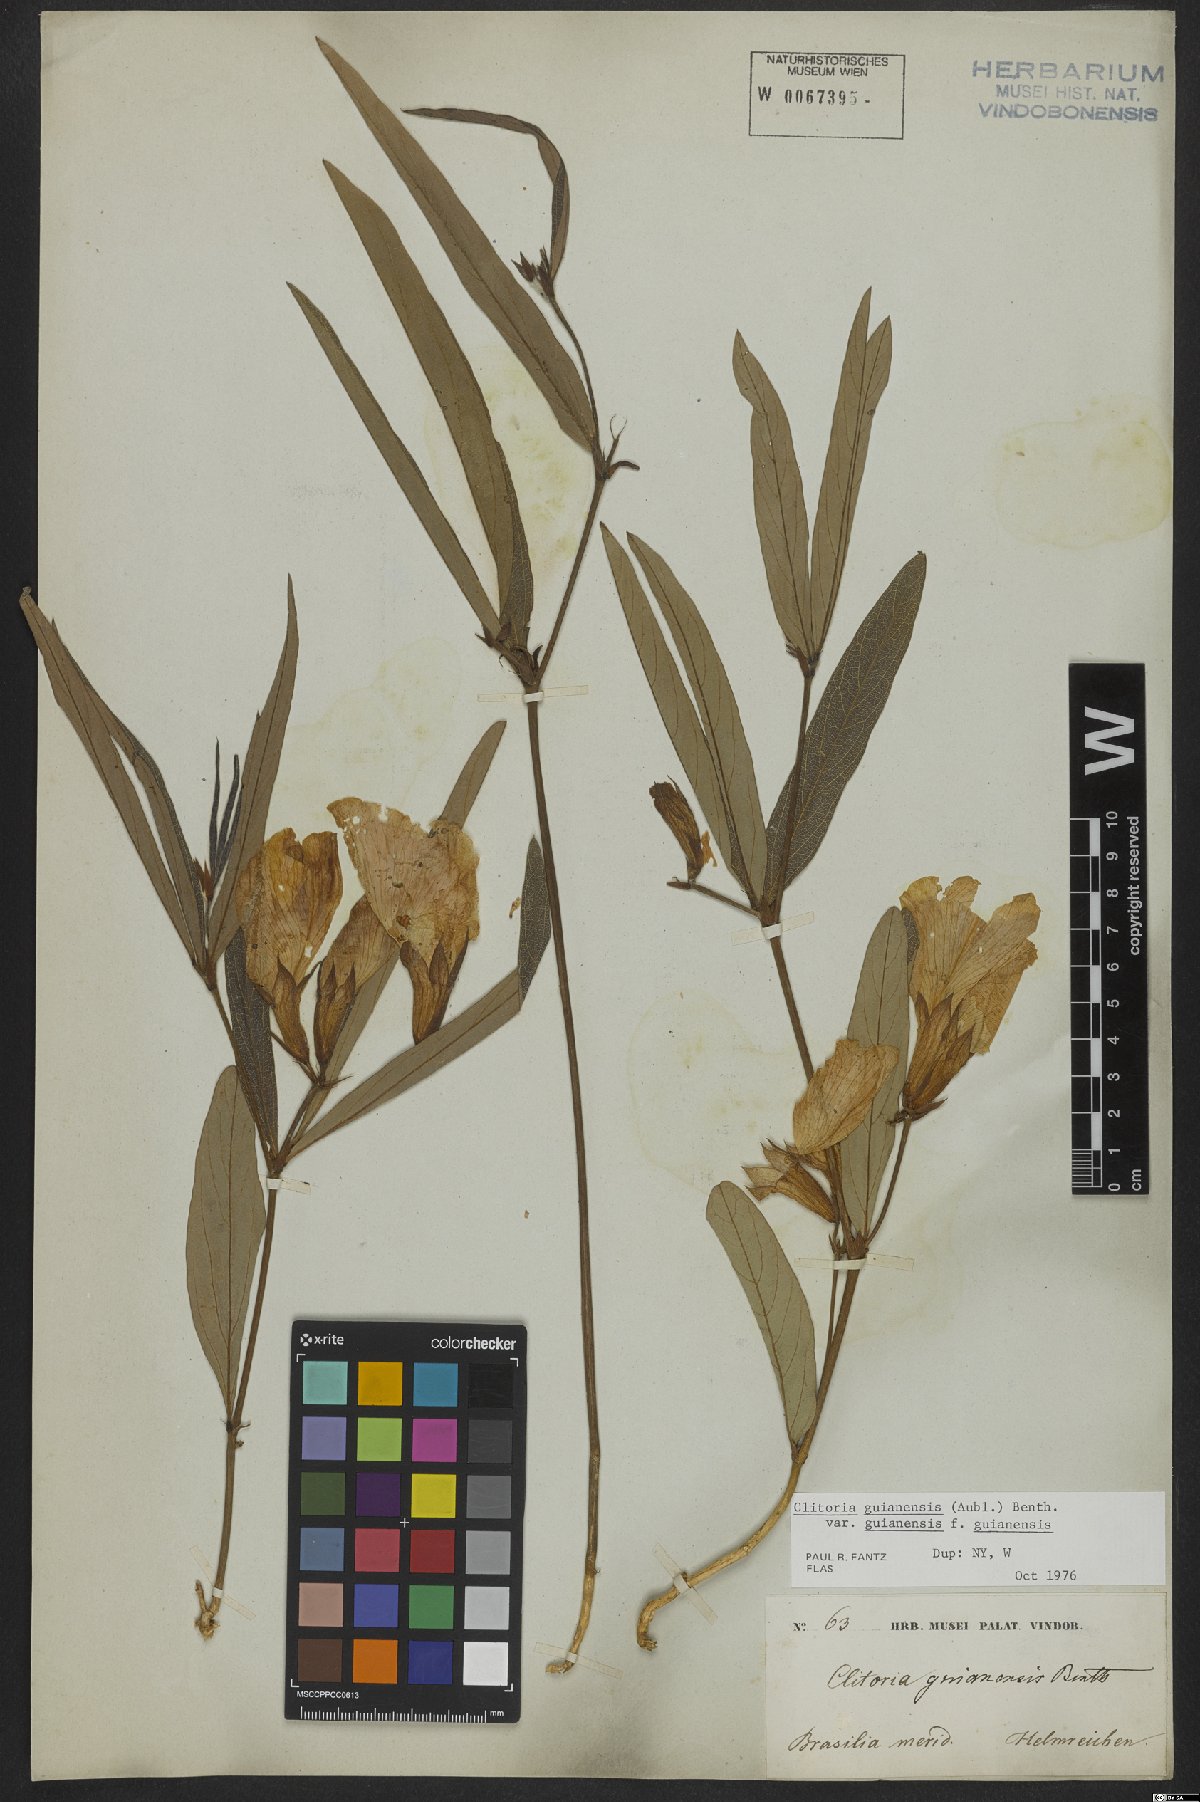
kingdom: Plantae
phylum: Tracheophyta
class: Magnoliopsida
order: Fabales
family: Fabaceae
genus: Clitoria
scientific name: Clitoria guianensis
